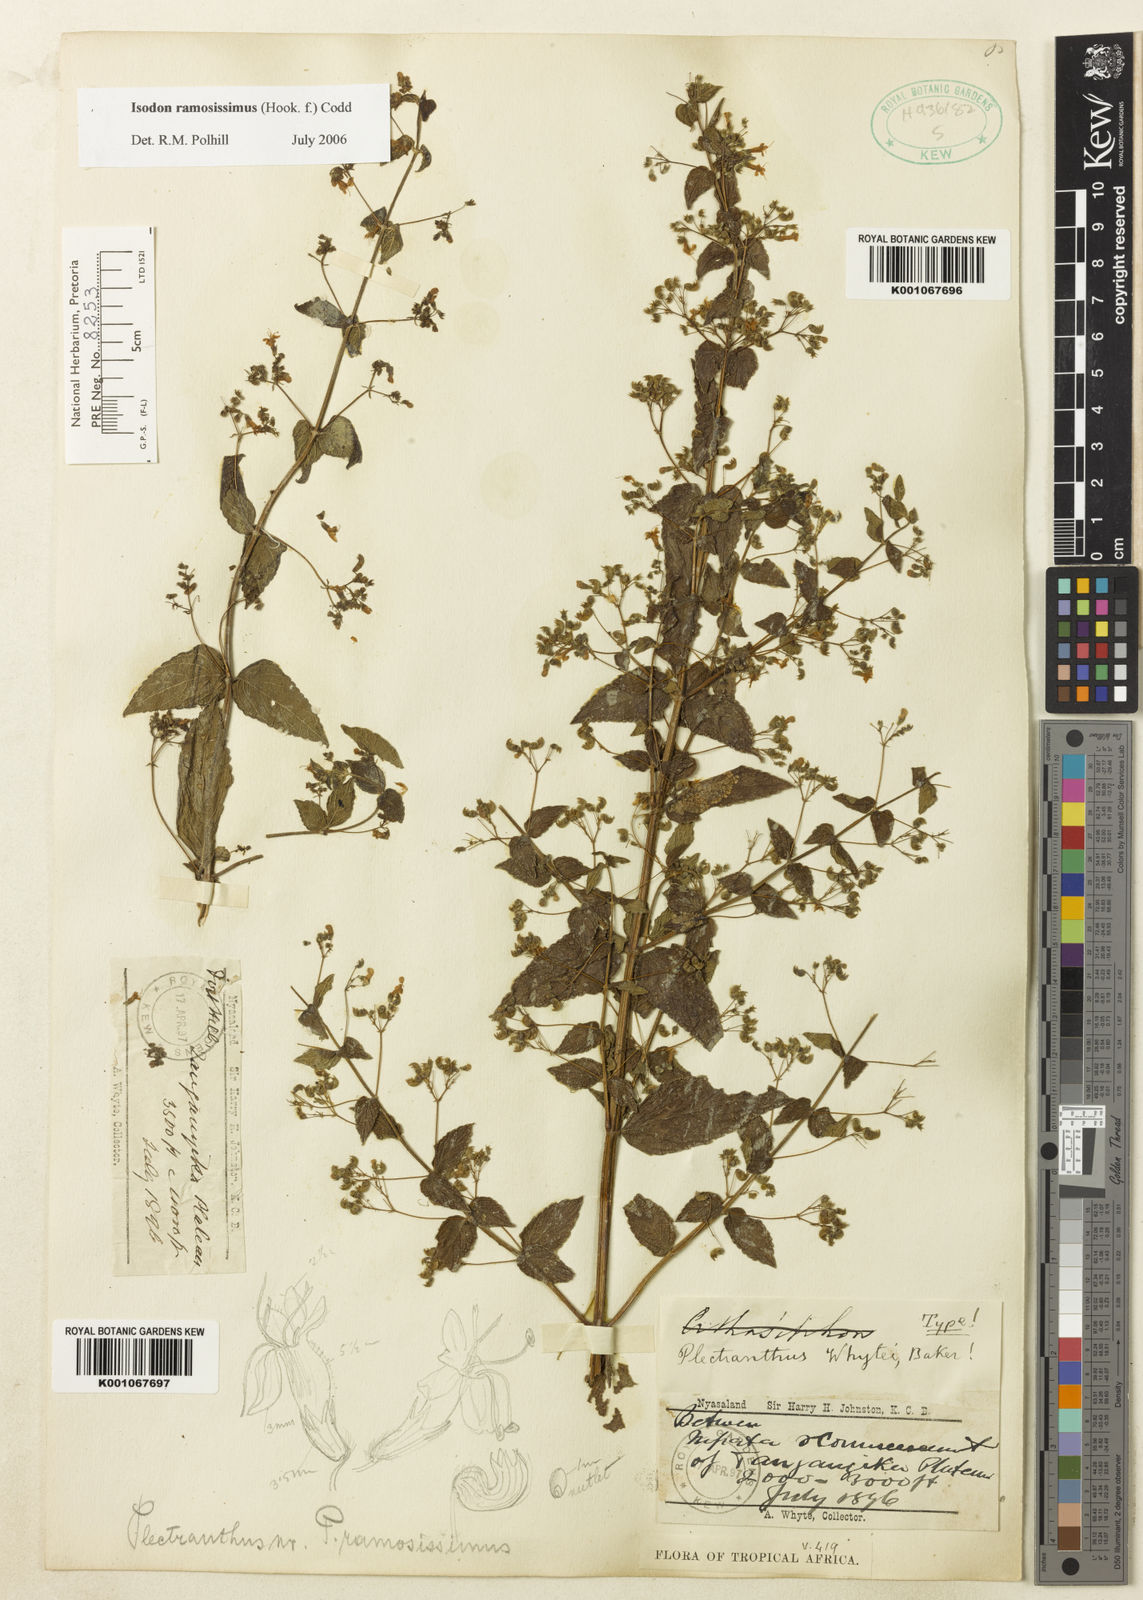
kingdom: Plantae
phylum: Tracheophyta
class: Magnoliopsida
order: Lamiales
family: Lamiaceae
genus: Isodon
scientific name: Isodon ramosissimus
